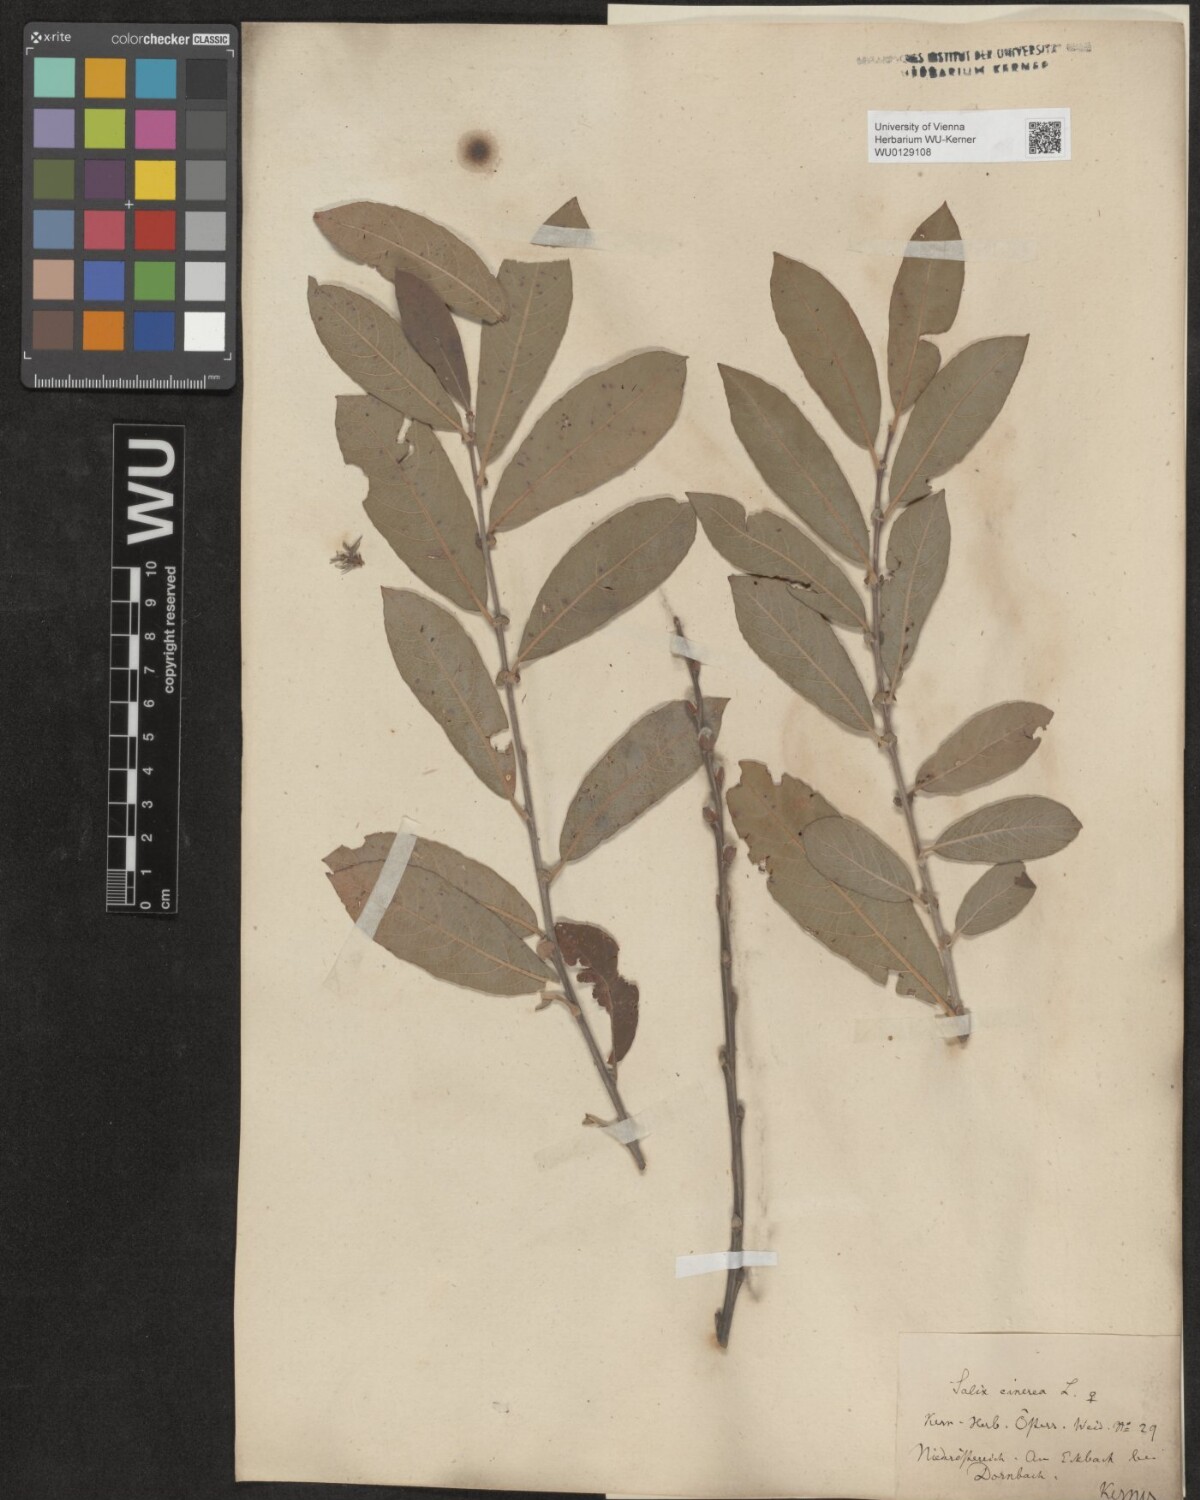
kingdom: Plantae
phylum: Tracheophyta
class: Magnoliopsida
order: Malpighiales
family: Salicaceae
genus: Salix
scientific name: Salix cinerea
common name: Common sallow
